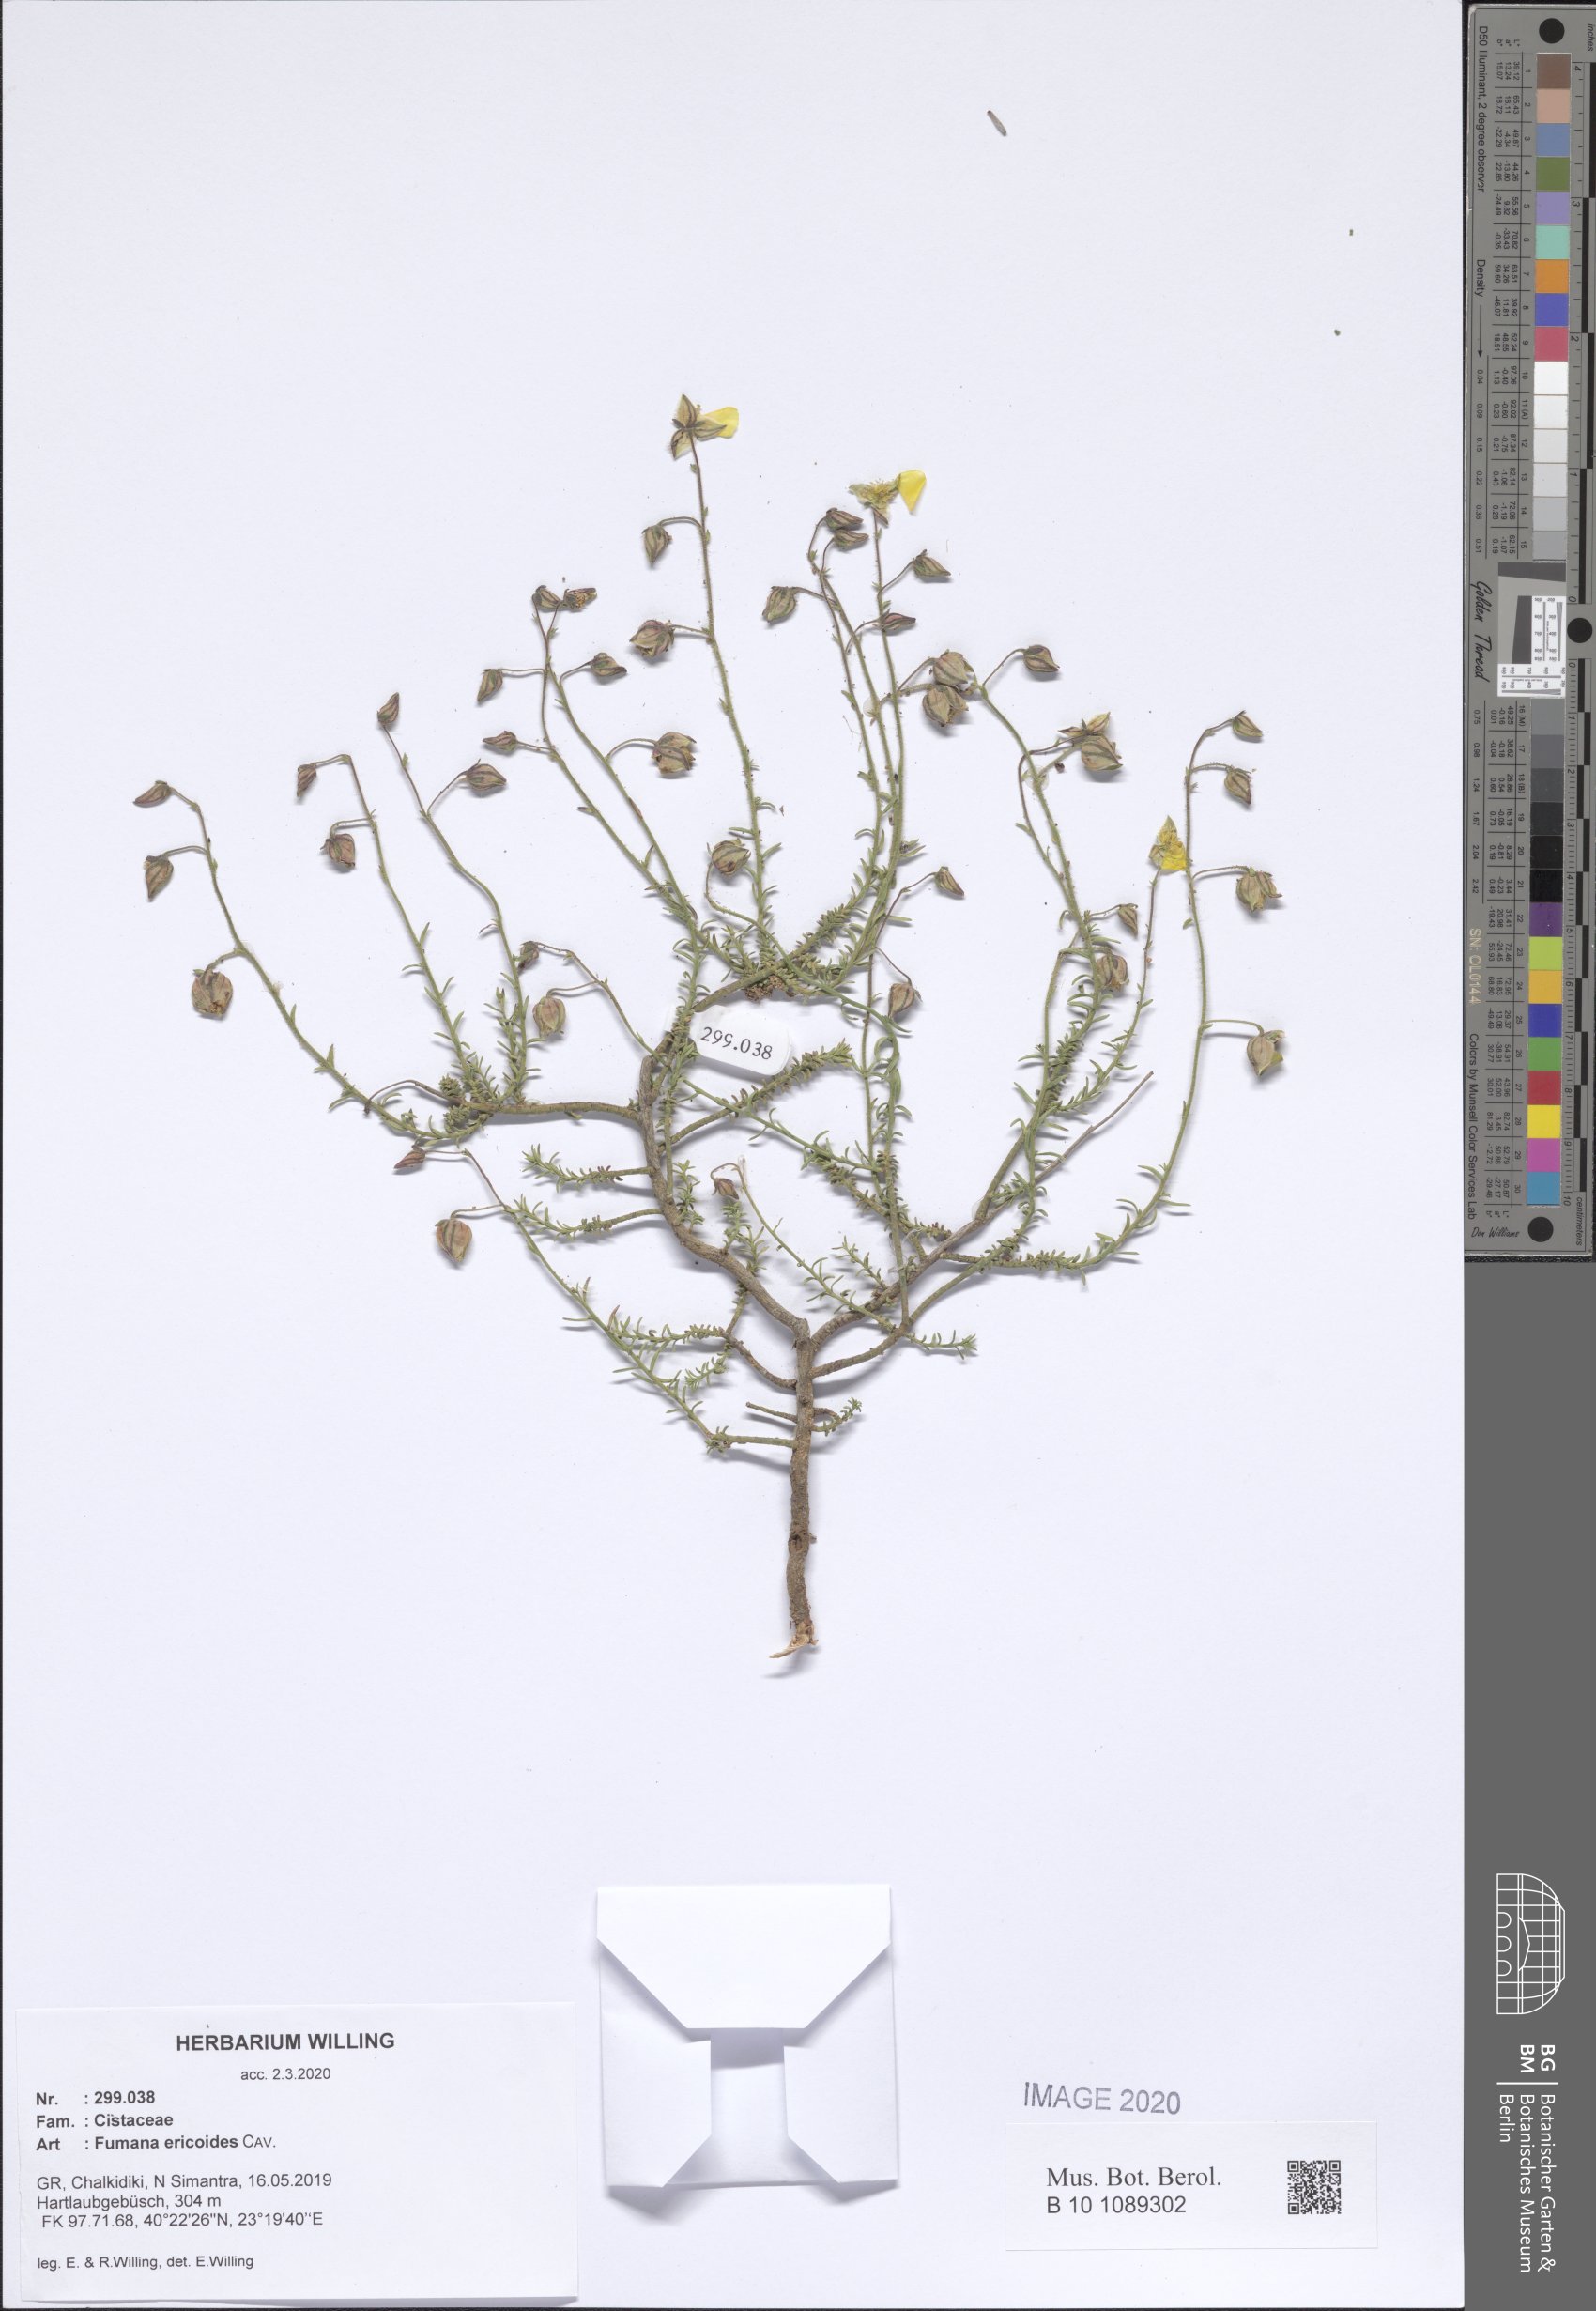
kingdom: Plantae
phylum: Tracheophyta
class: Magnoliopsida
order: Malvales
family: Cistaceae
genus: Fumana
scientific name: Fumana ericoides
